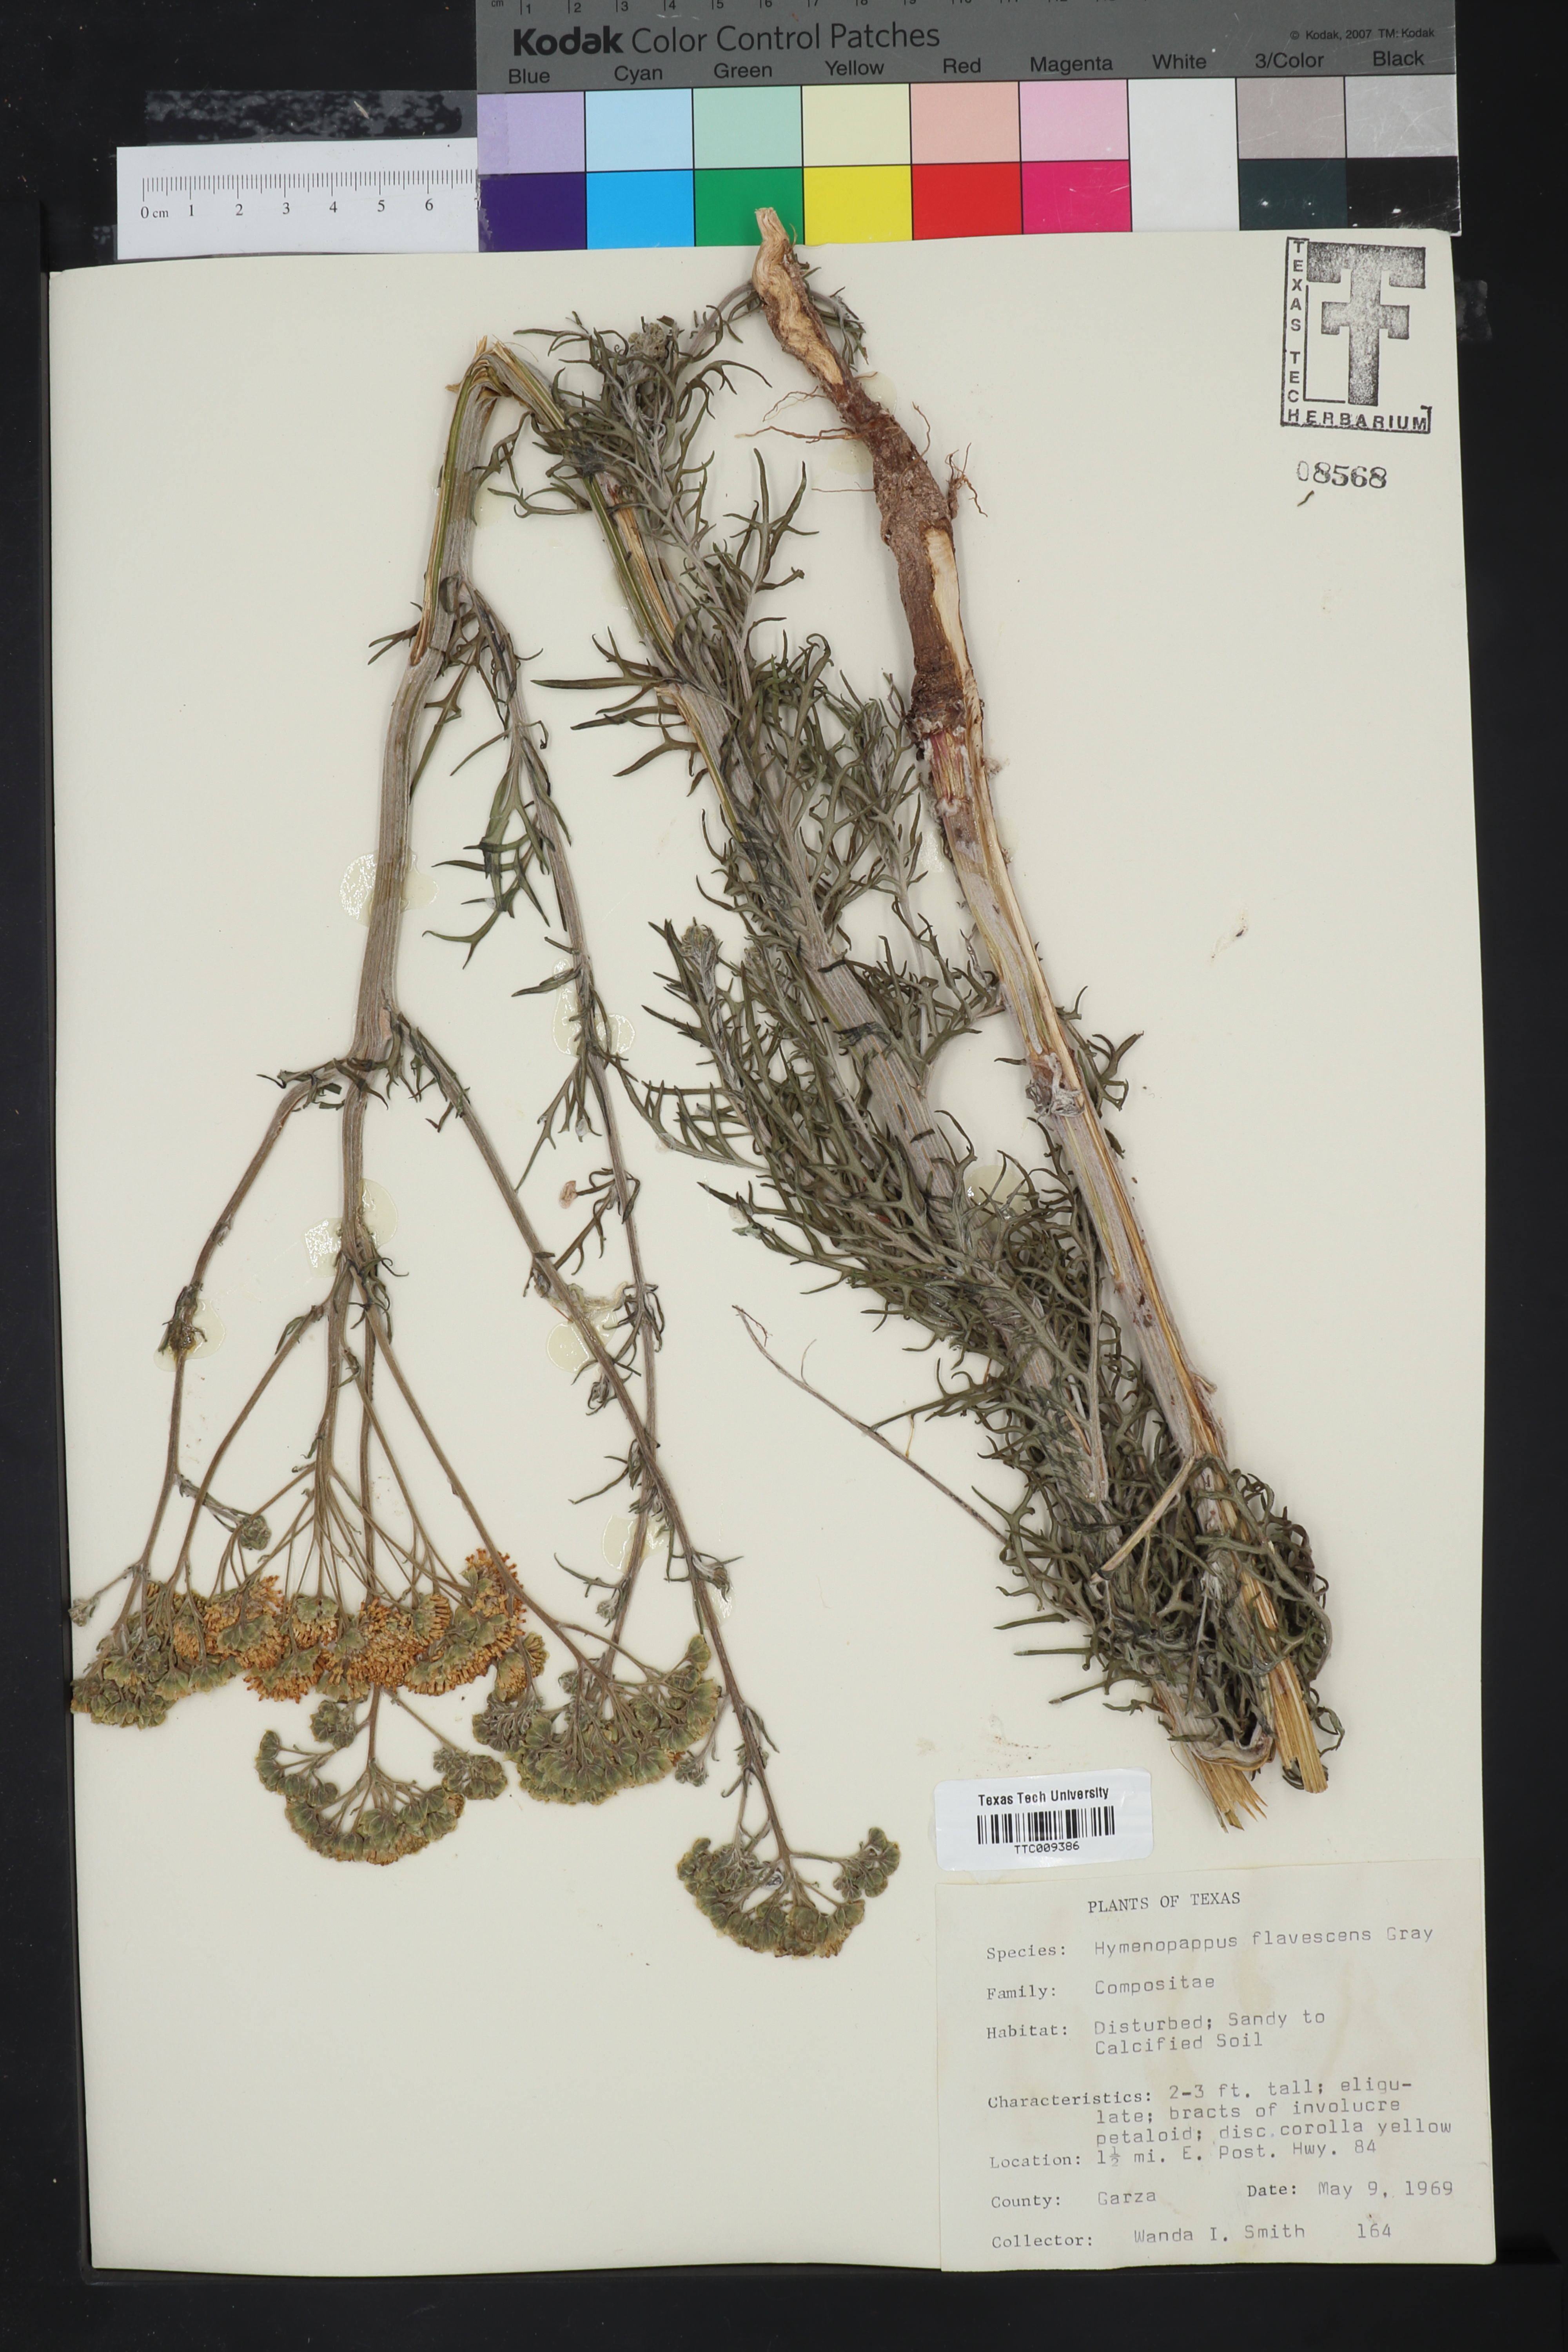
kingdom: Plantae
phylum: Tracheophyta
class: Magnoliopsida
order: Asterales
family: Asteraceae
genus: Hymenopappus
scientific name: Hymenopappus flavescens
